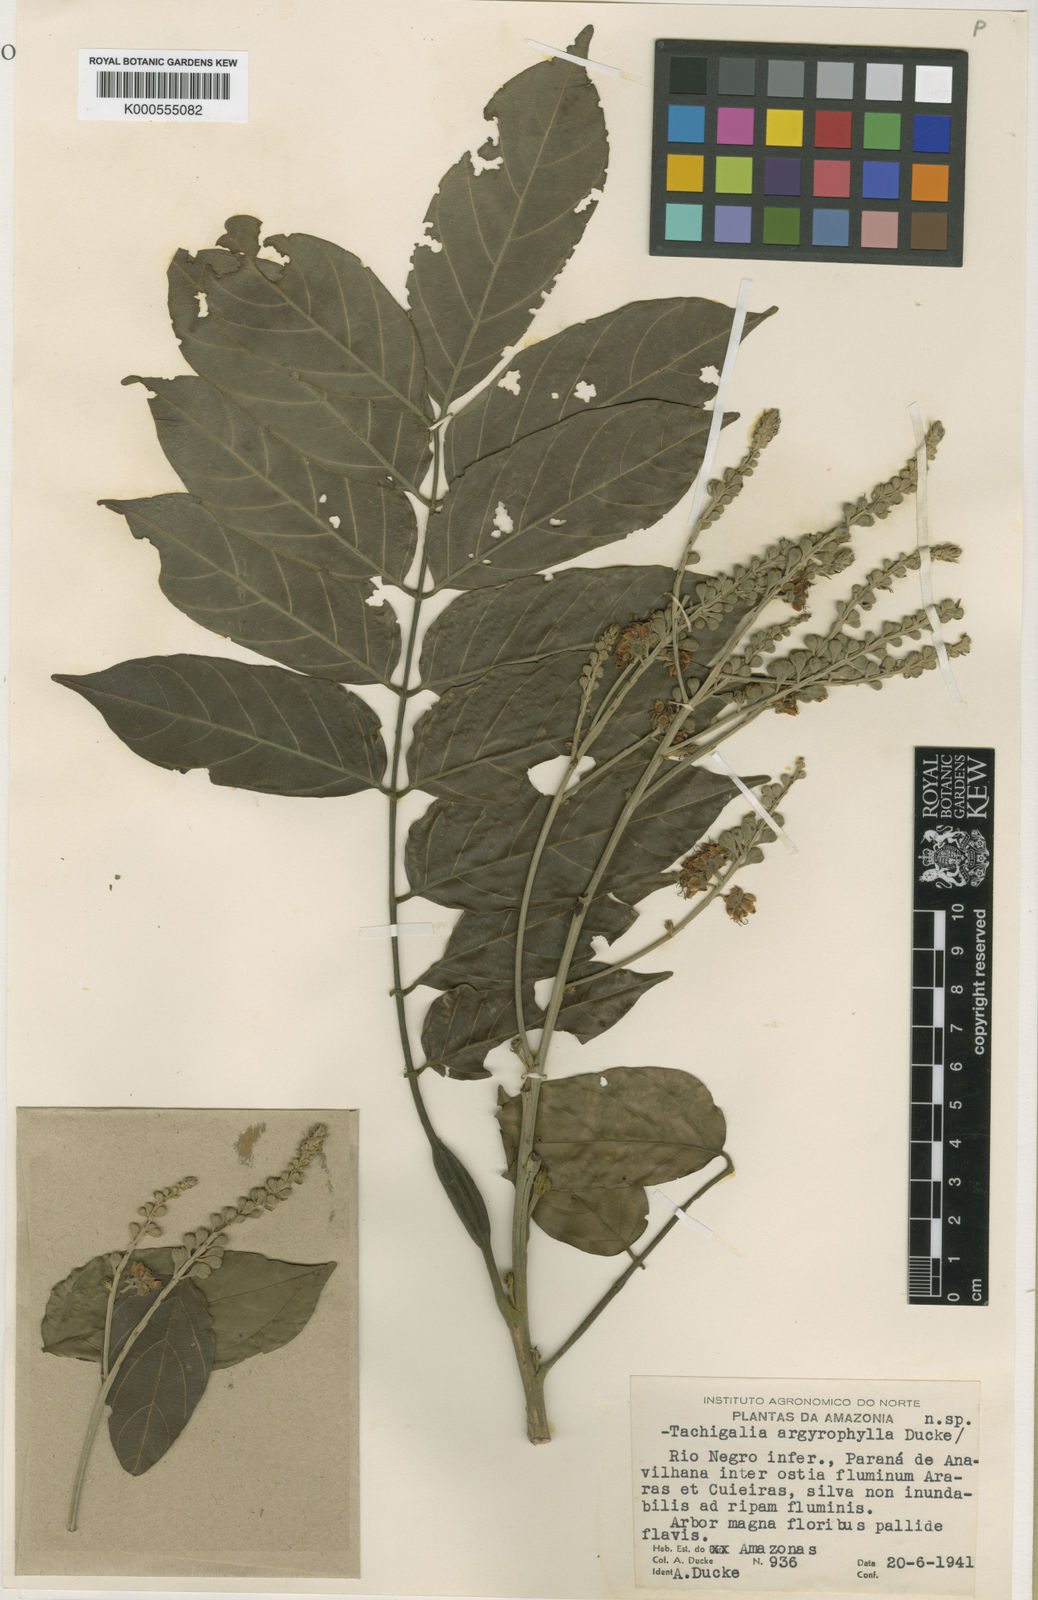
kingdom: Plantae
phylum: Tracheophyta
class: Magnoliopsida
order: Fabales
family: Fabaceae
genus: Tachigali
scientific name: Tachigali argyrophylla
